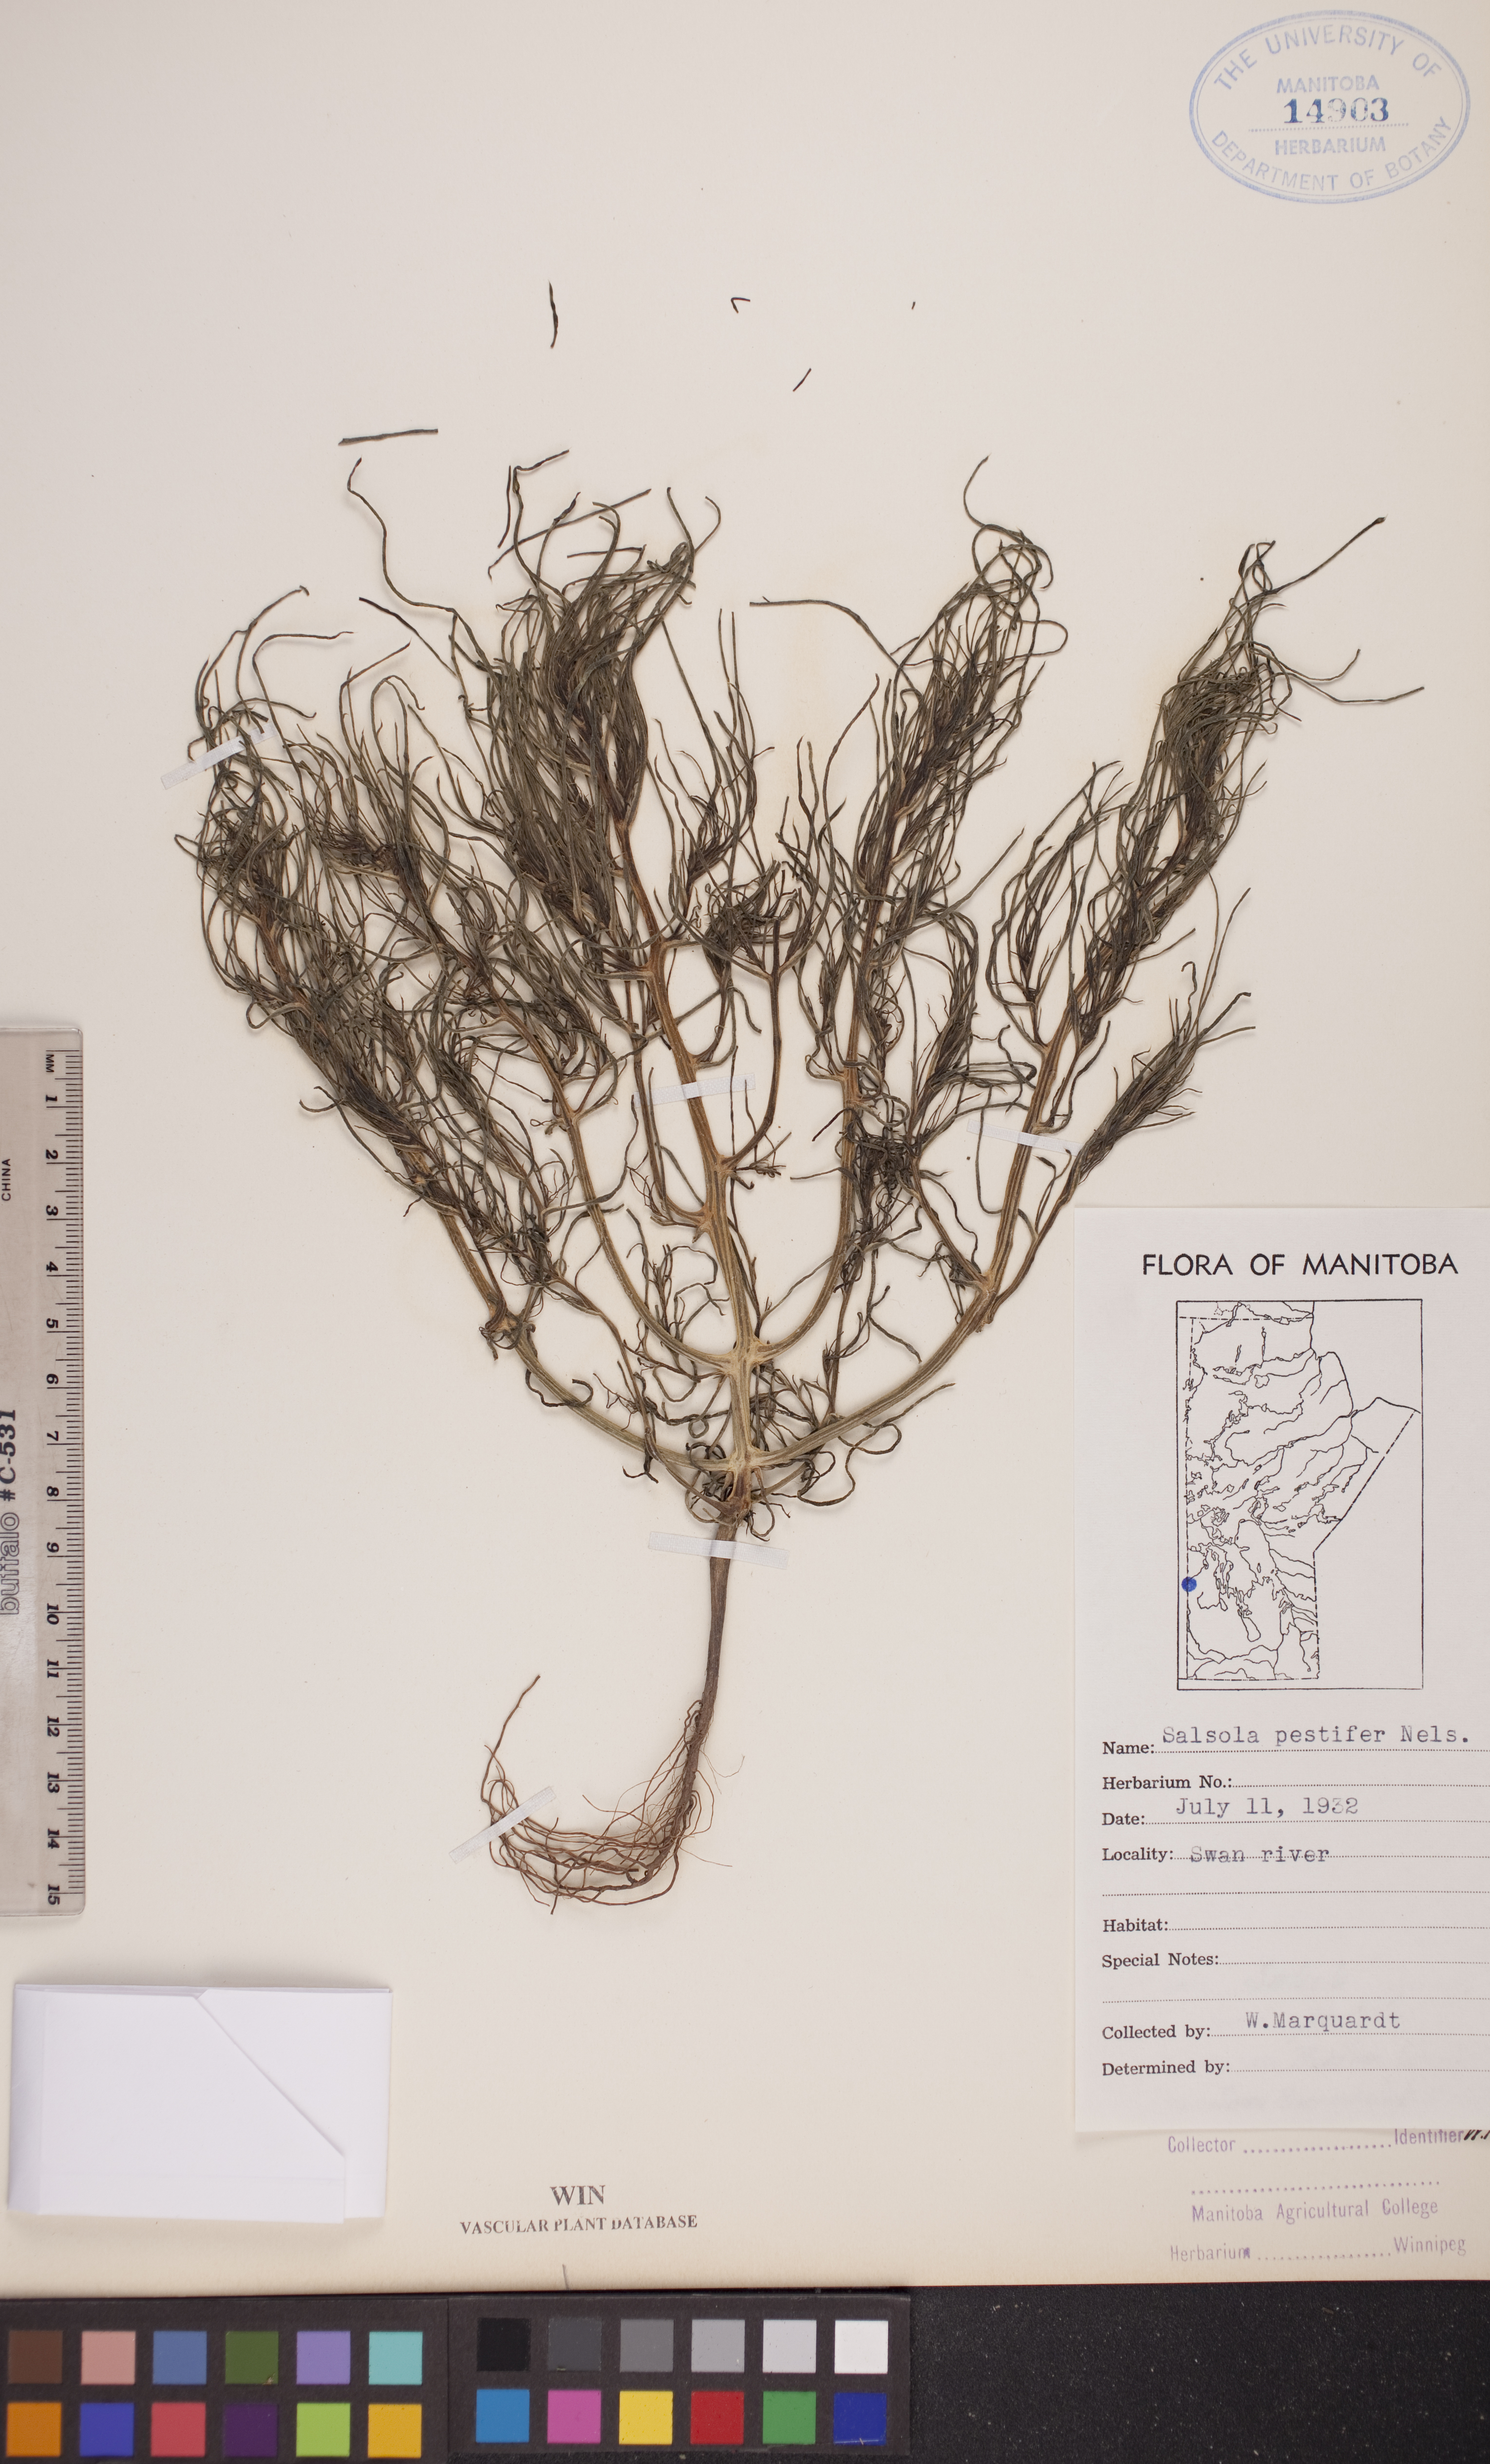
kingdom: Plantae
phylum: Tracheophyta
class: Magnoliopsida
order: Caryophyllales
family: Amaranthaceae
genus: Salsola
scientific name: Salsola tragus
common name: Prickly russian thistle
